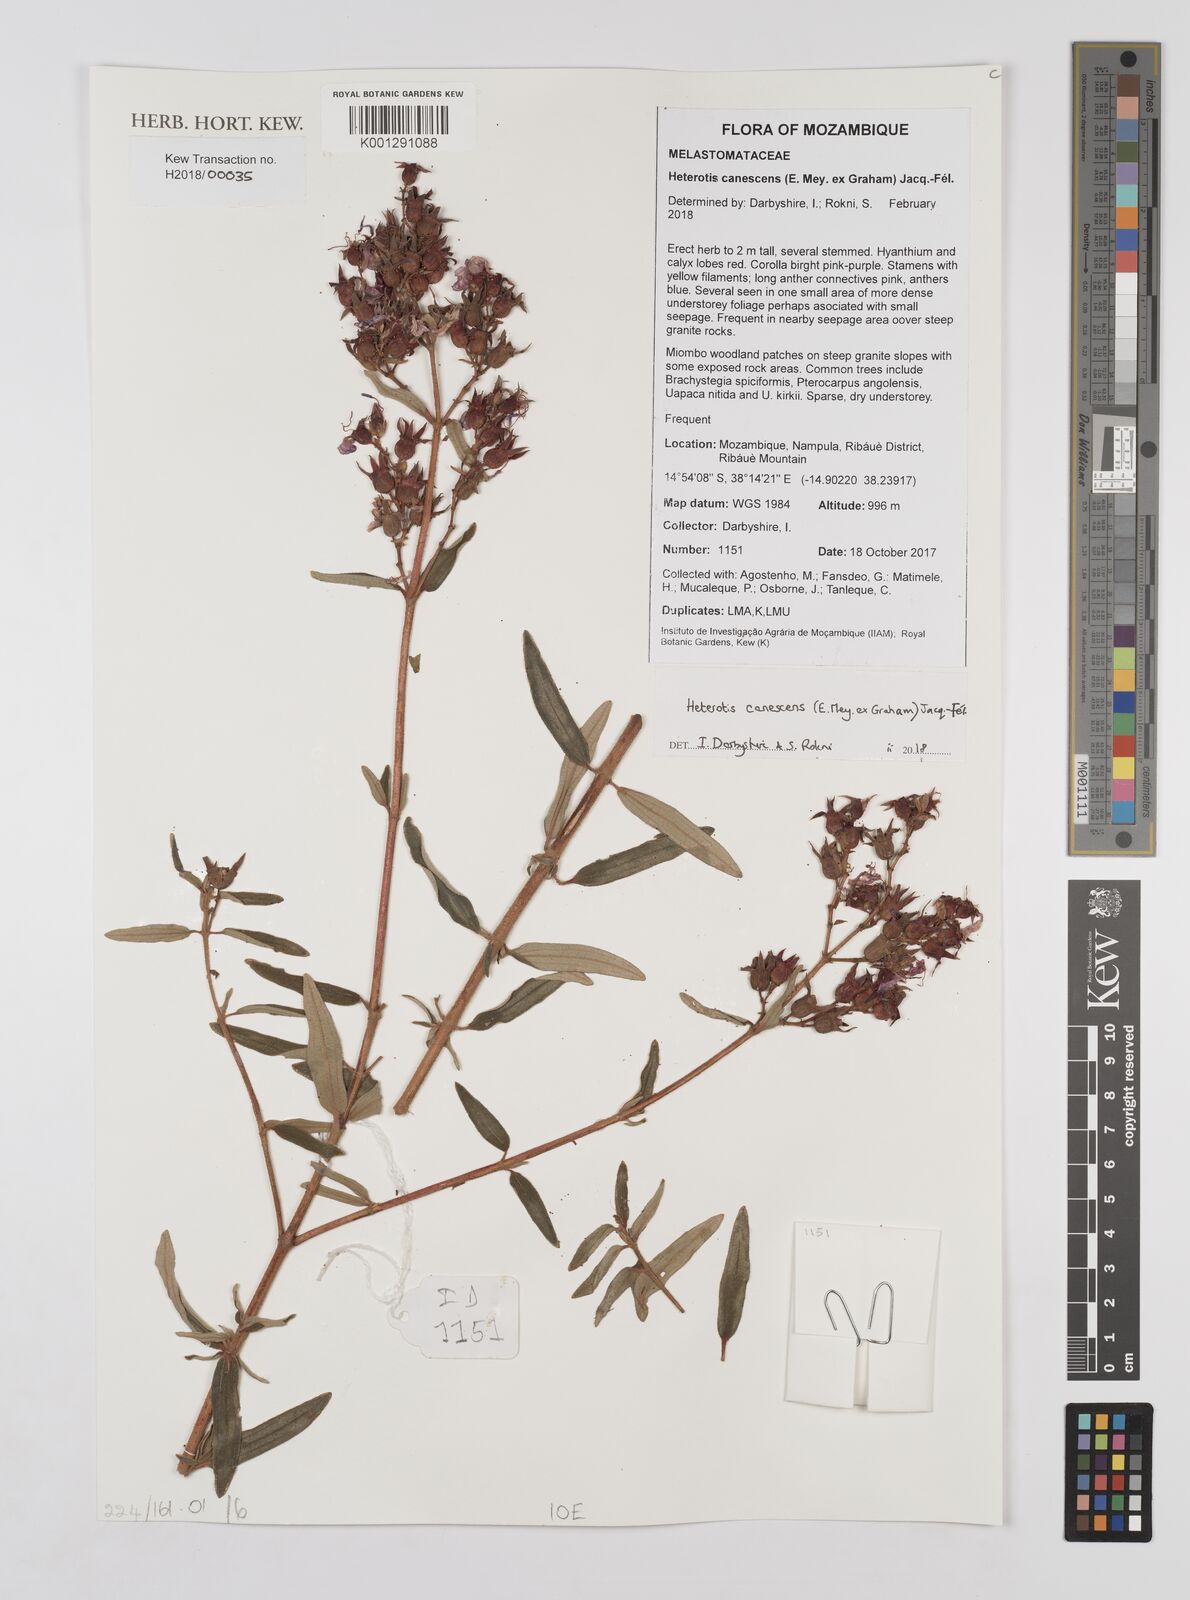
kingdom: Plantae
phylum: Tracheophyta
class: Magnoliopsida
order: Myrtales
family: Melastomataceae
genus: Argyrella
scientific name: Argyrella canescens
